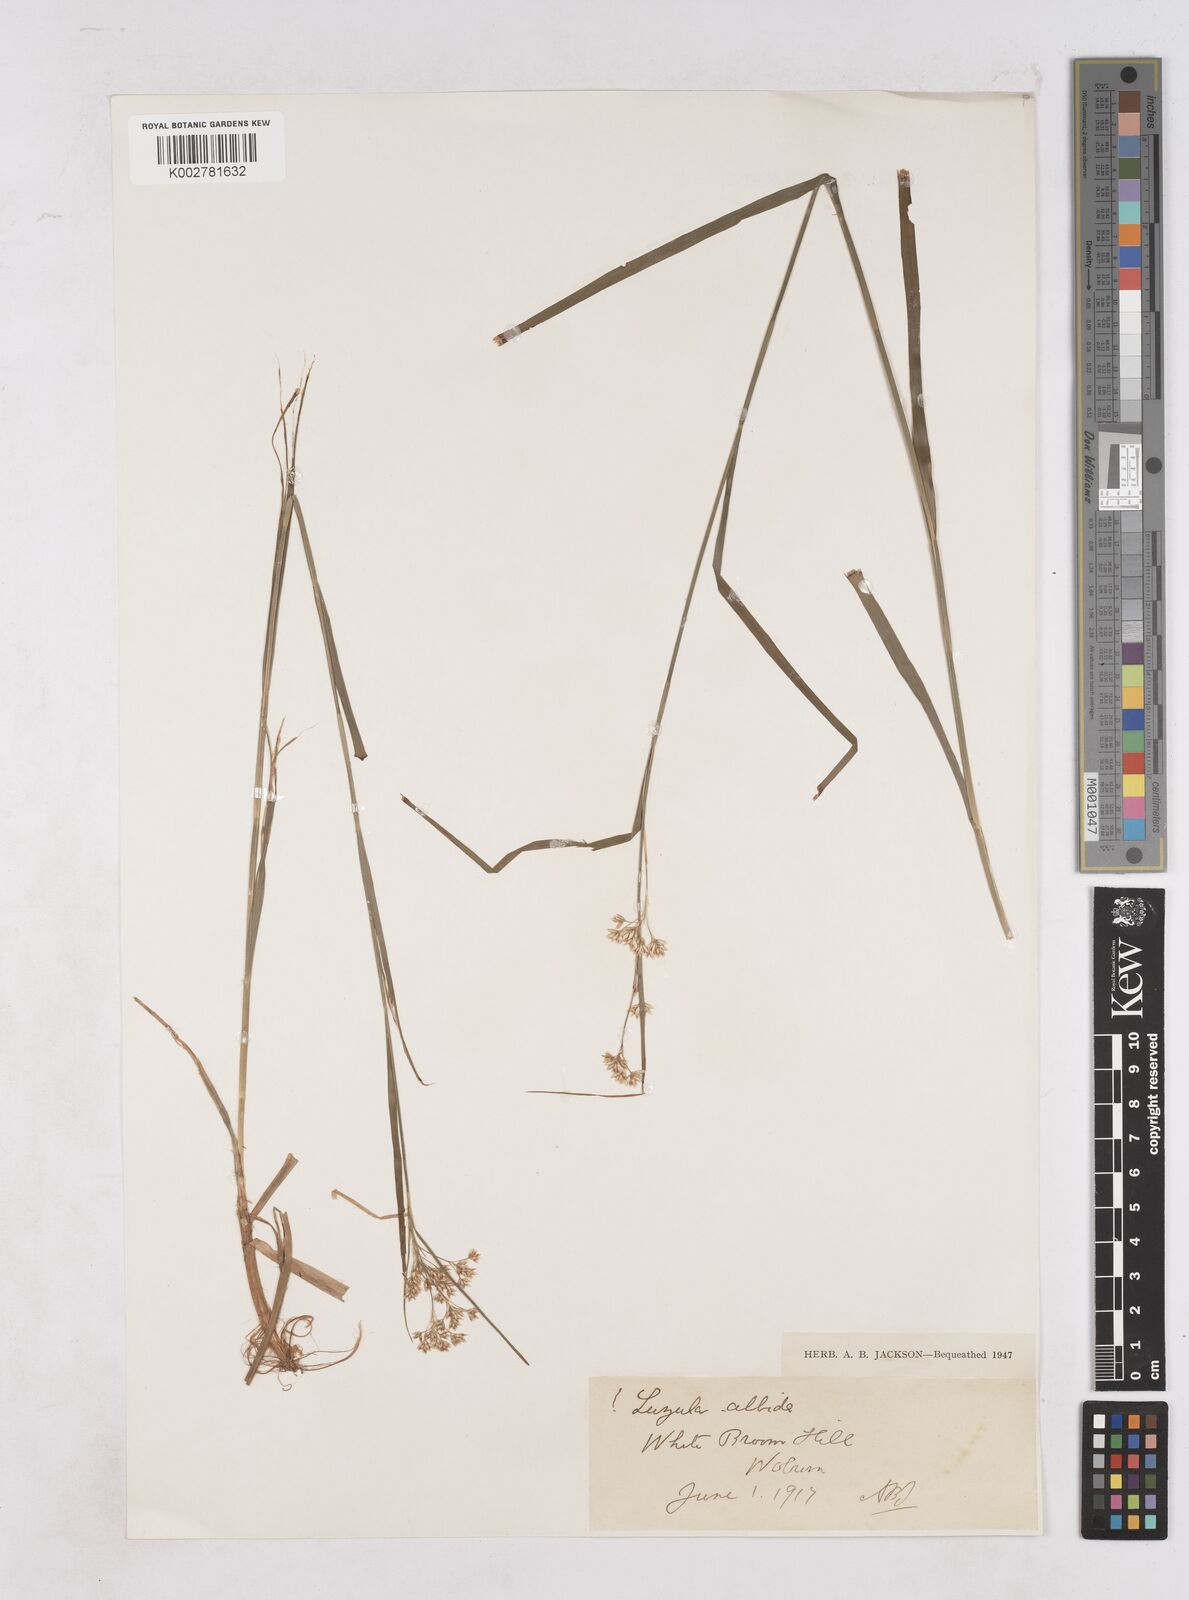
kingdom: Plantae
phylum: Tracheophyta
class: Liliopsida
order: Poales
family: Juncaceae
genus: Luzula
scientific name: Luzula luzuloides
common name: White wood-rush
